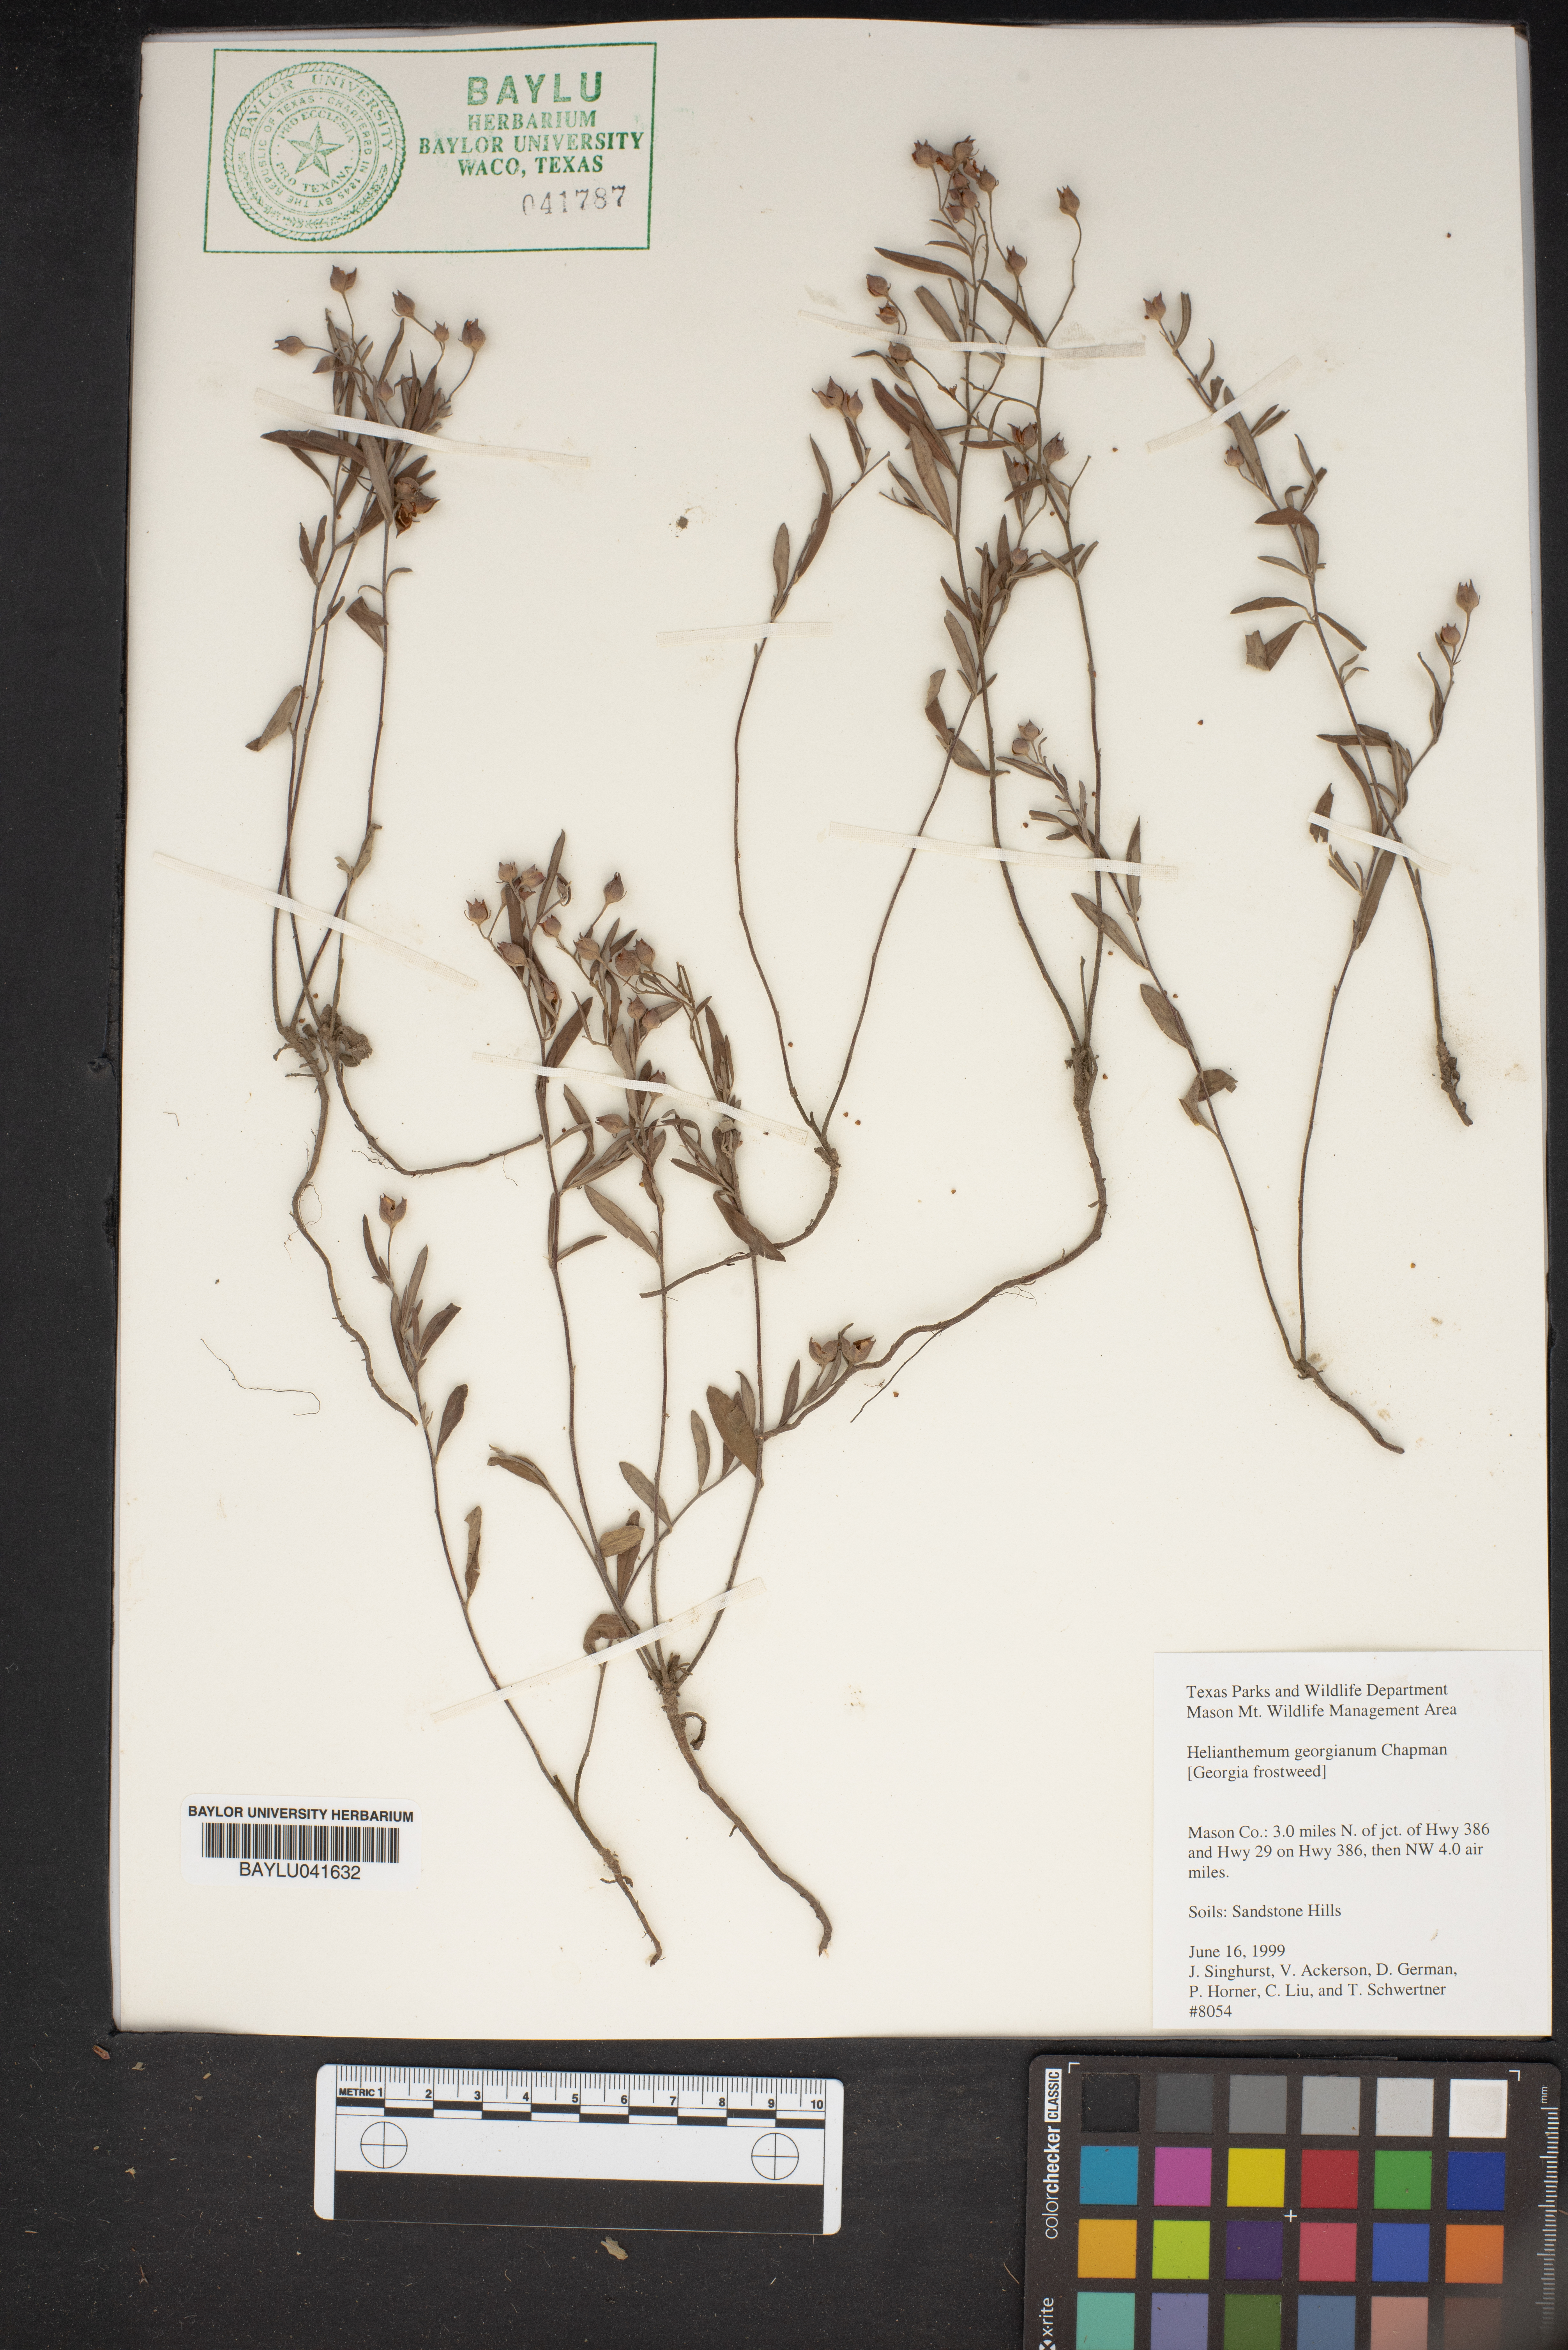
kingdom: Plantae
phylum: Tracheophyta
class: Magnoliopsida
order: Malvales
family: Cistaceae
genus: Crocanthemum
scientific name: Crocanthemum georgianum
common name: Georgia frostweed
